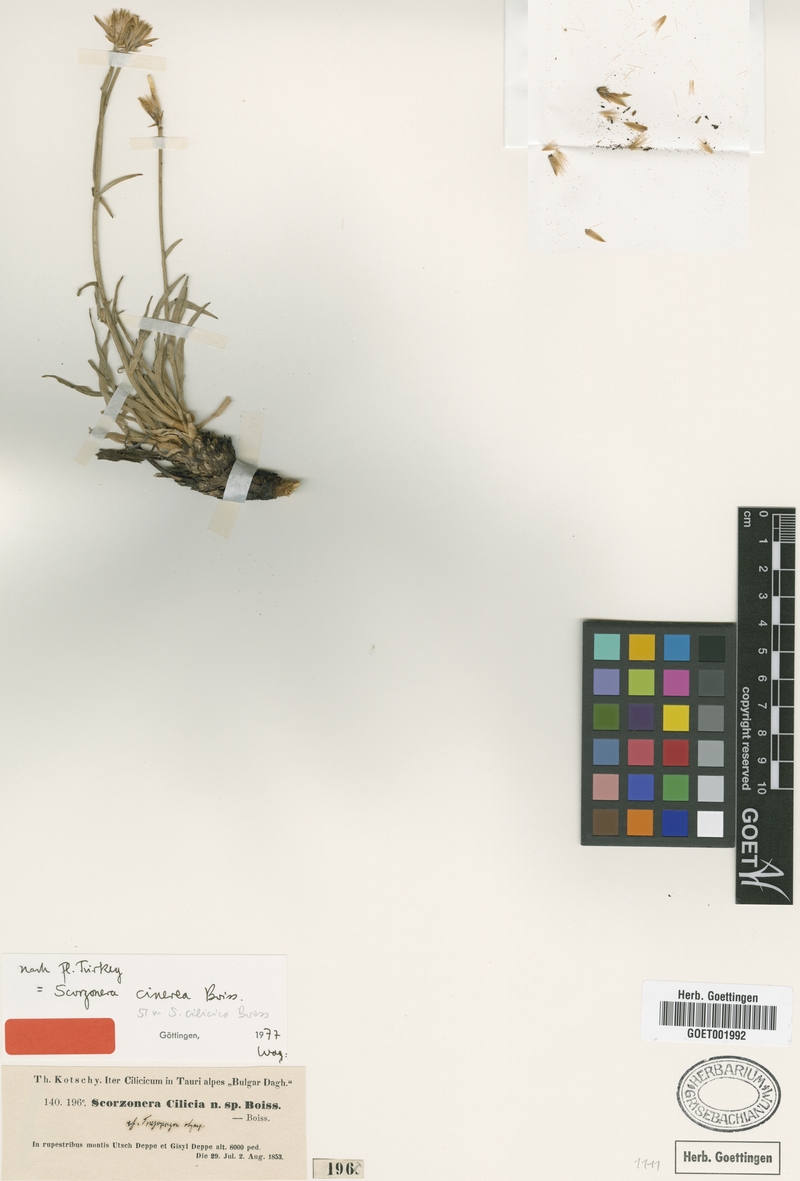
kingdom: Plantae
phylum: Tracheophyta
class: Magnoliopsida
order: Asterales
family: Asteraceae
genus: Cigdemia
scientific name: Cigdemia cinerea
